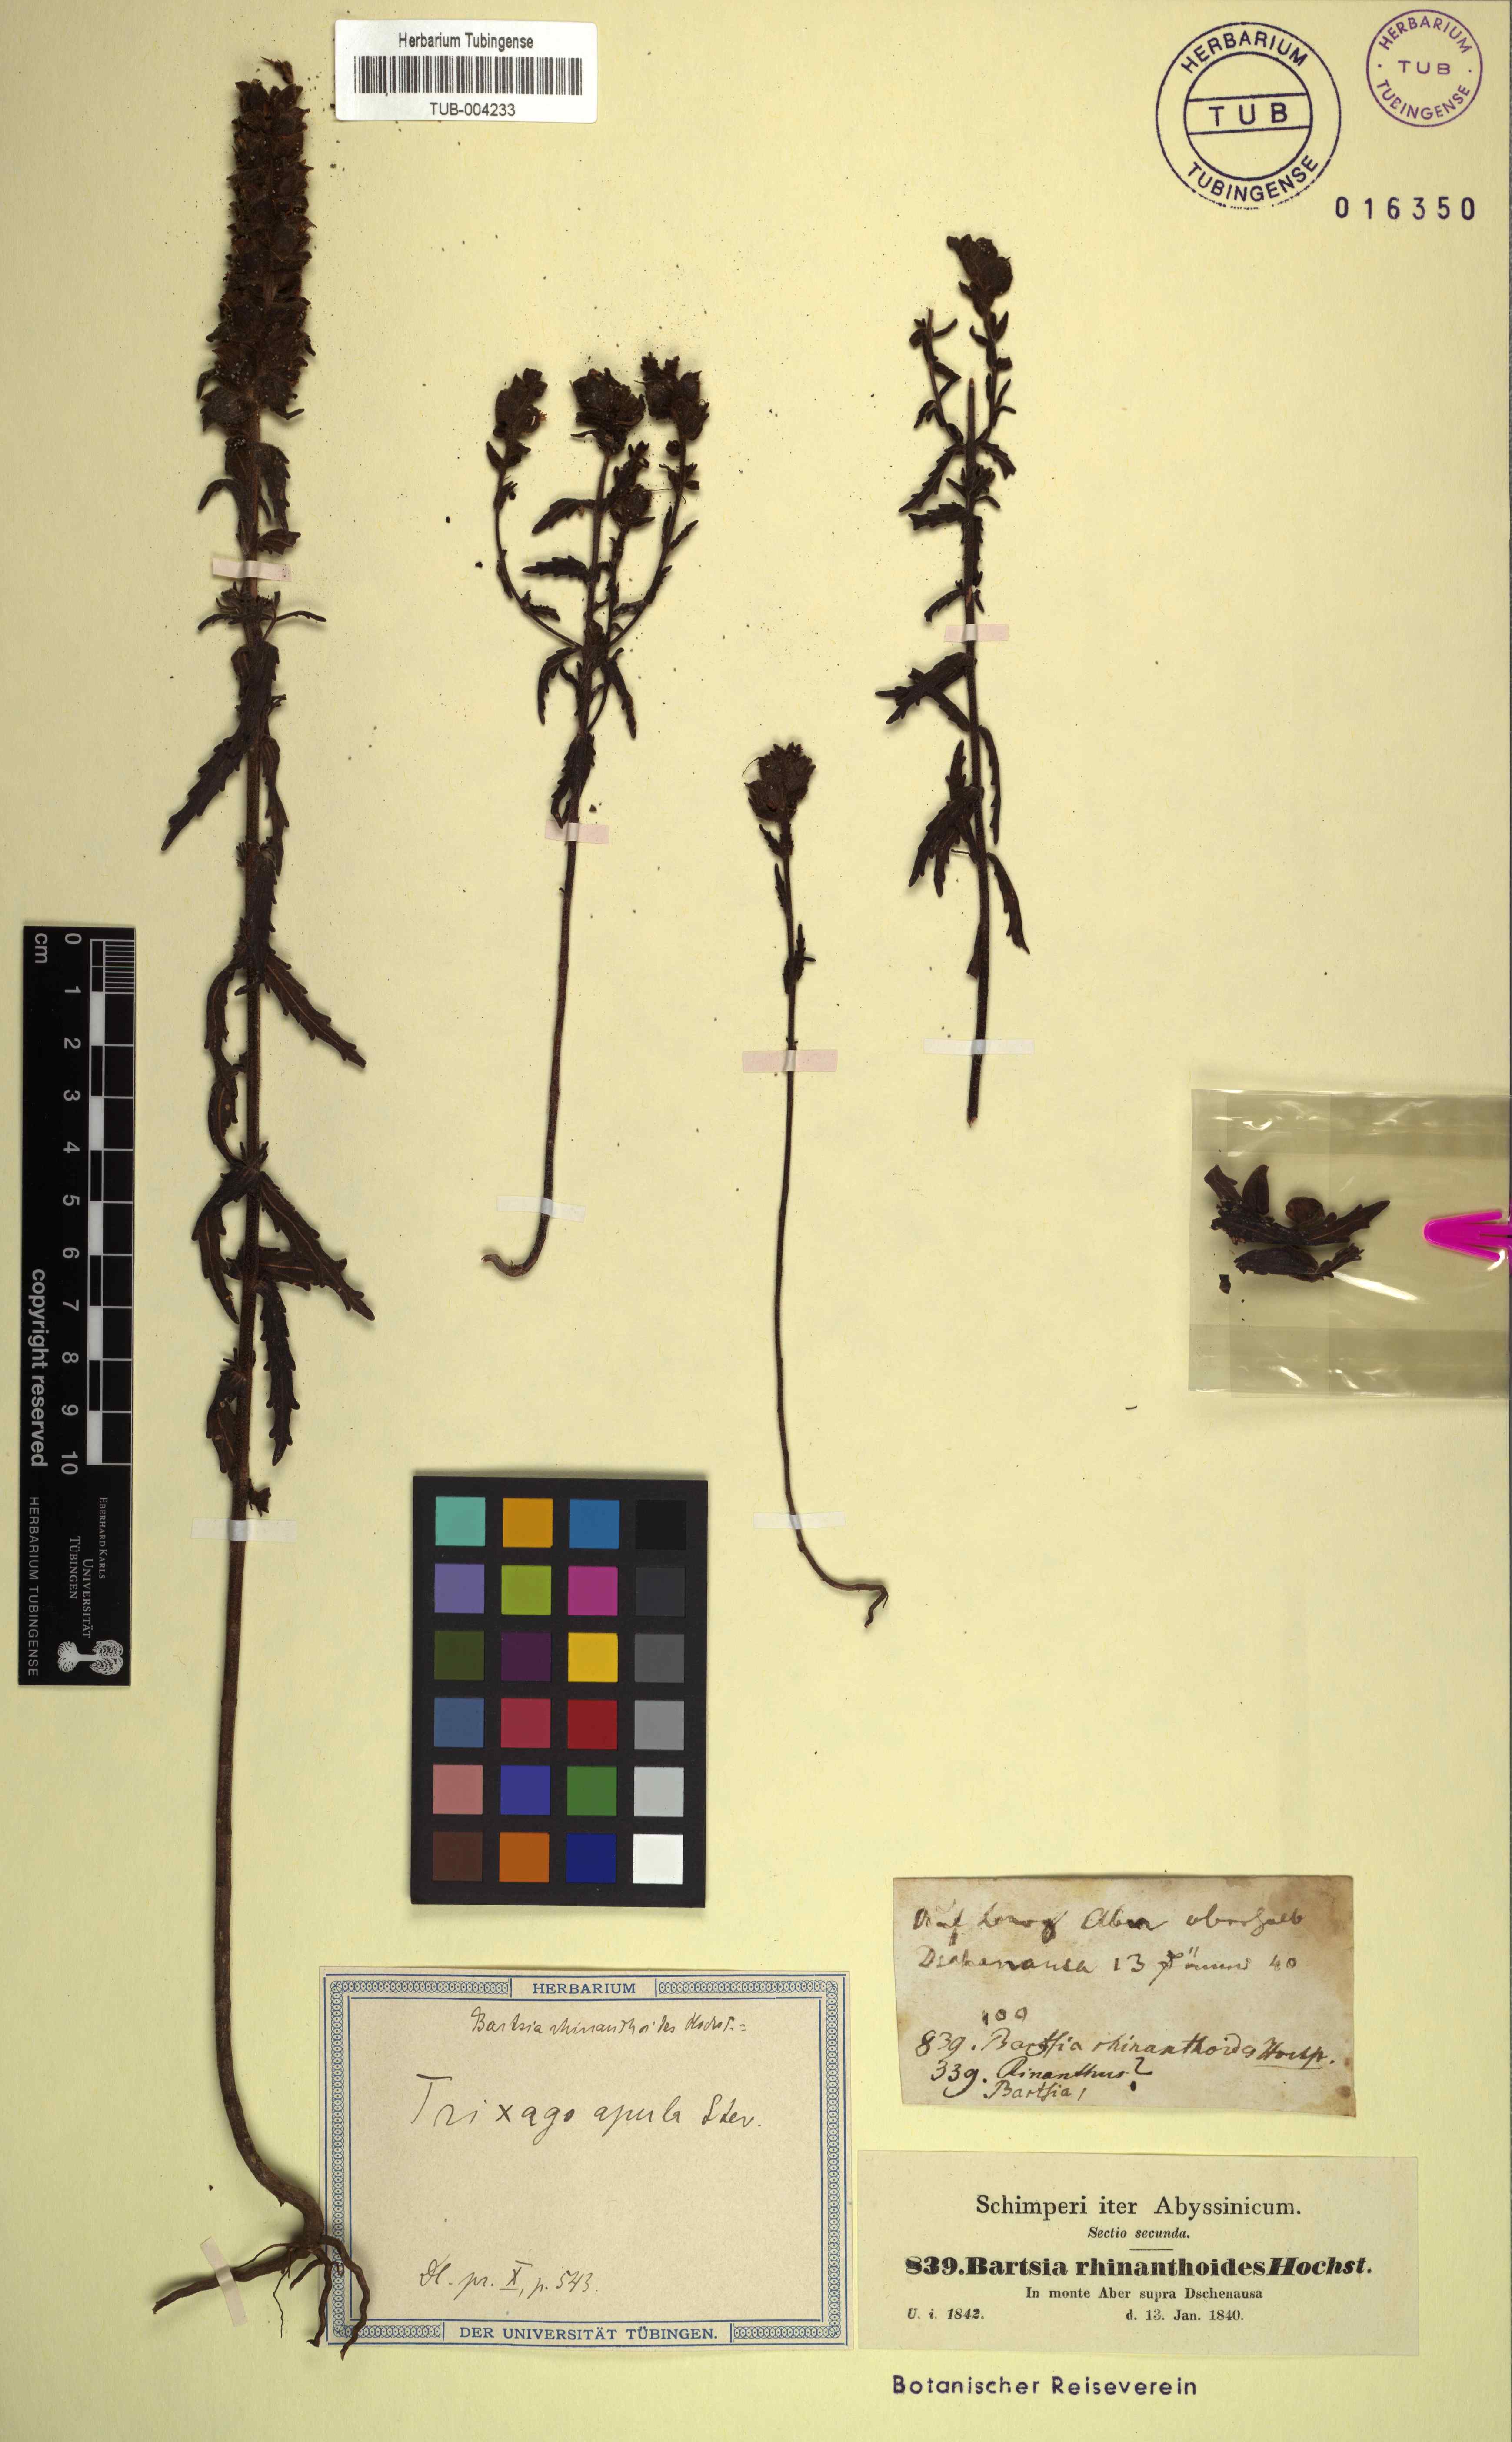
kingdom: Plantae
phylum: Tracheophyta
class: Magnoliopsida
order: Lamiales
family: Orobanchaceae
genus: Bellardia
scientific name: Bellardia trixago
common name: Mediterranean lineseed
